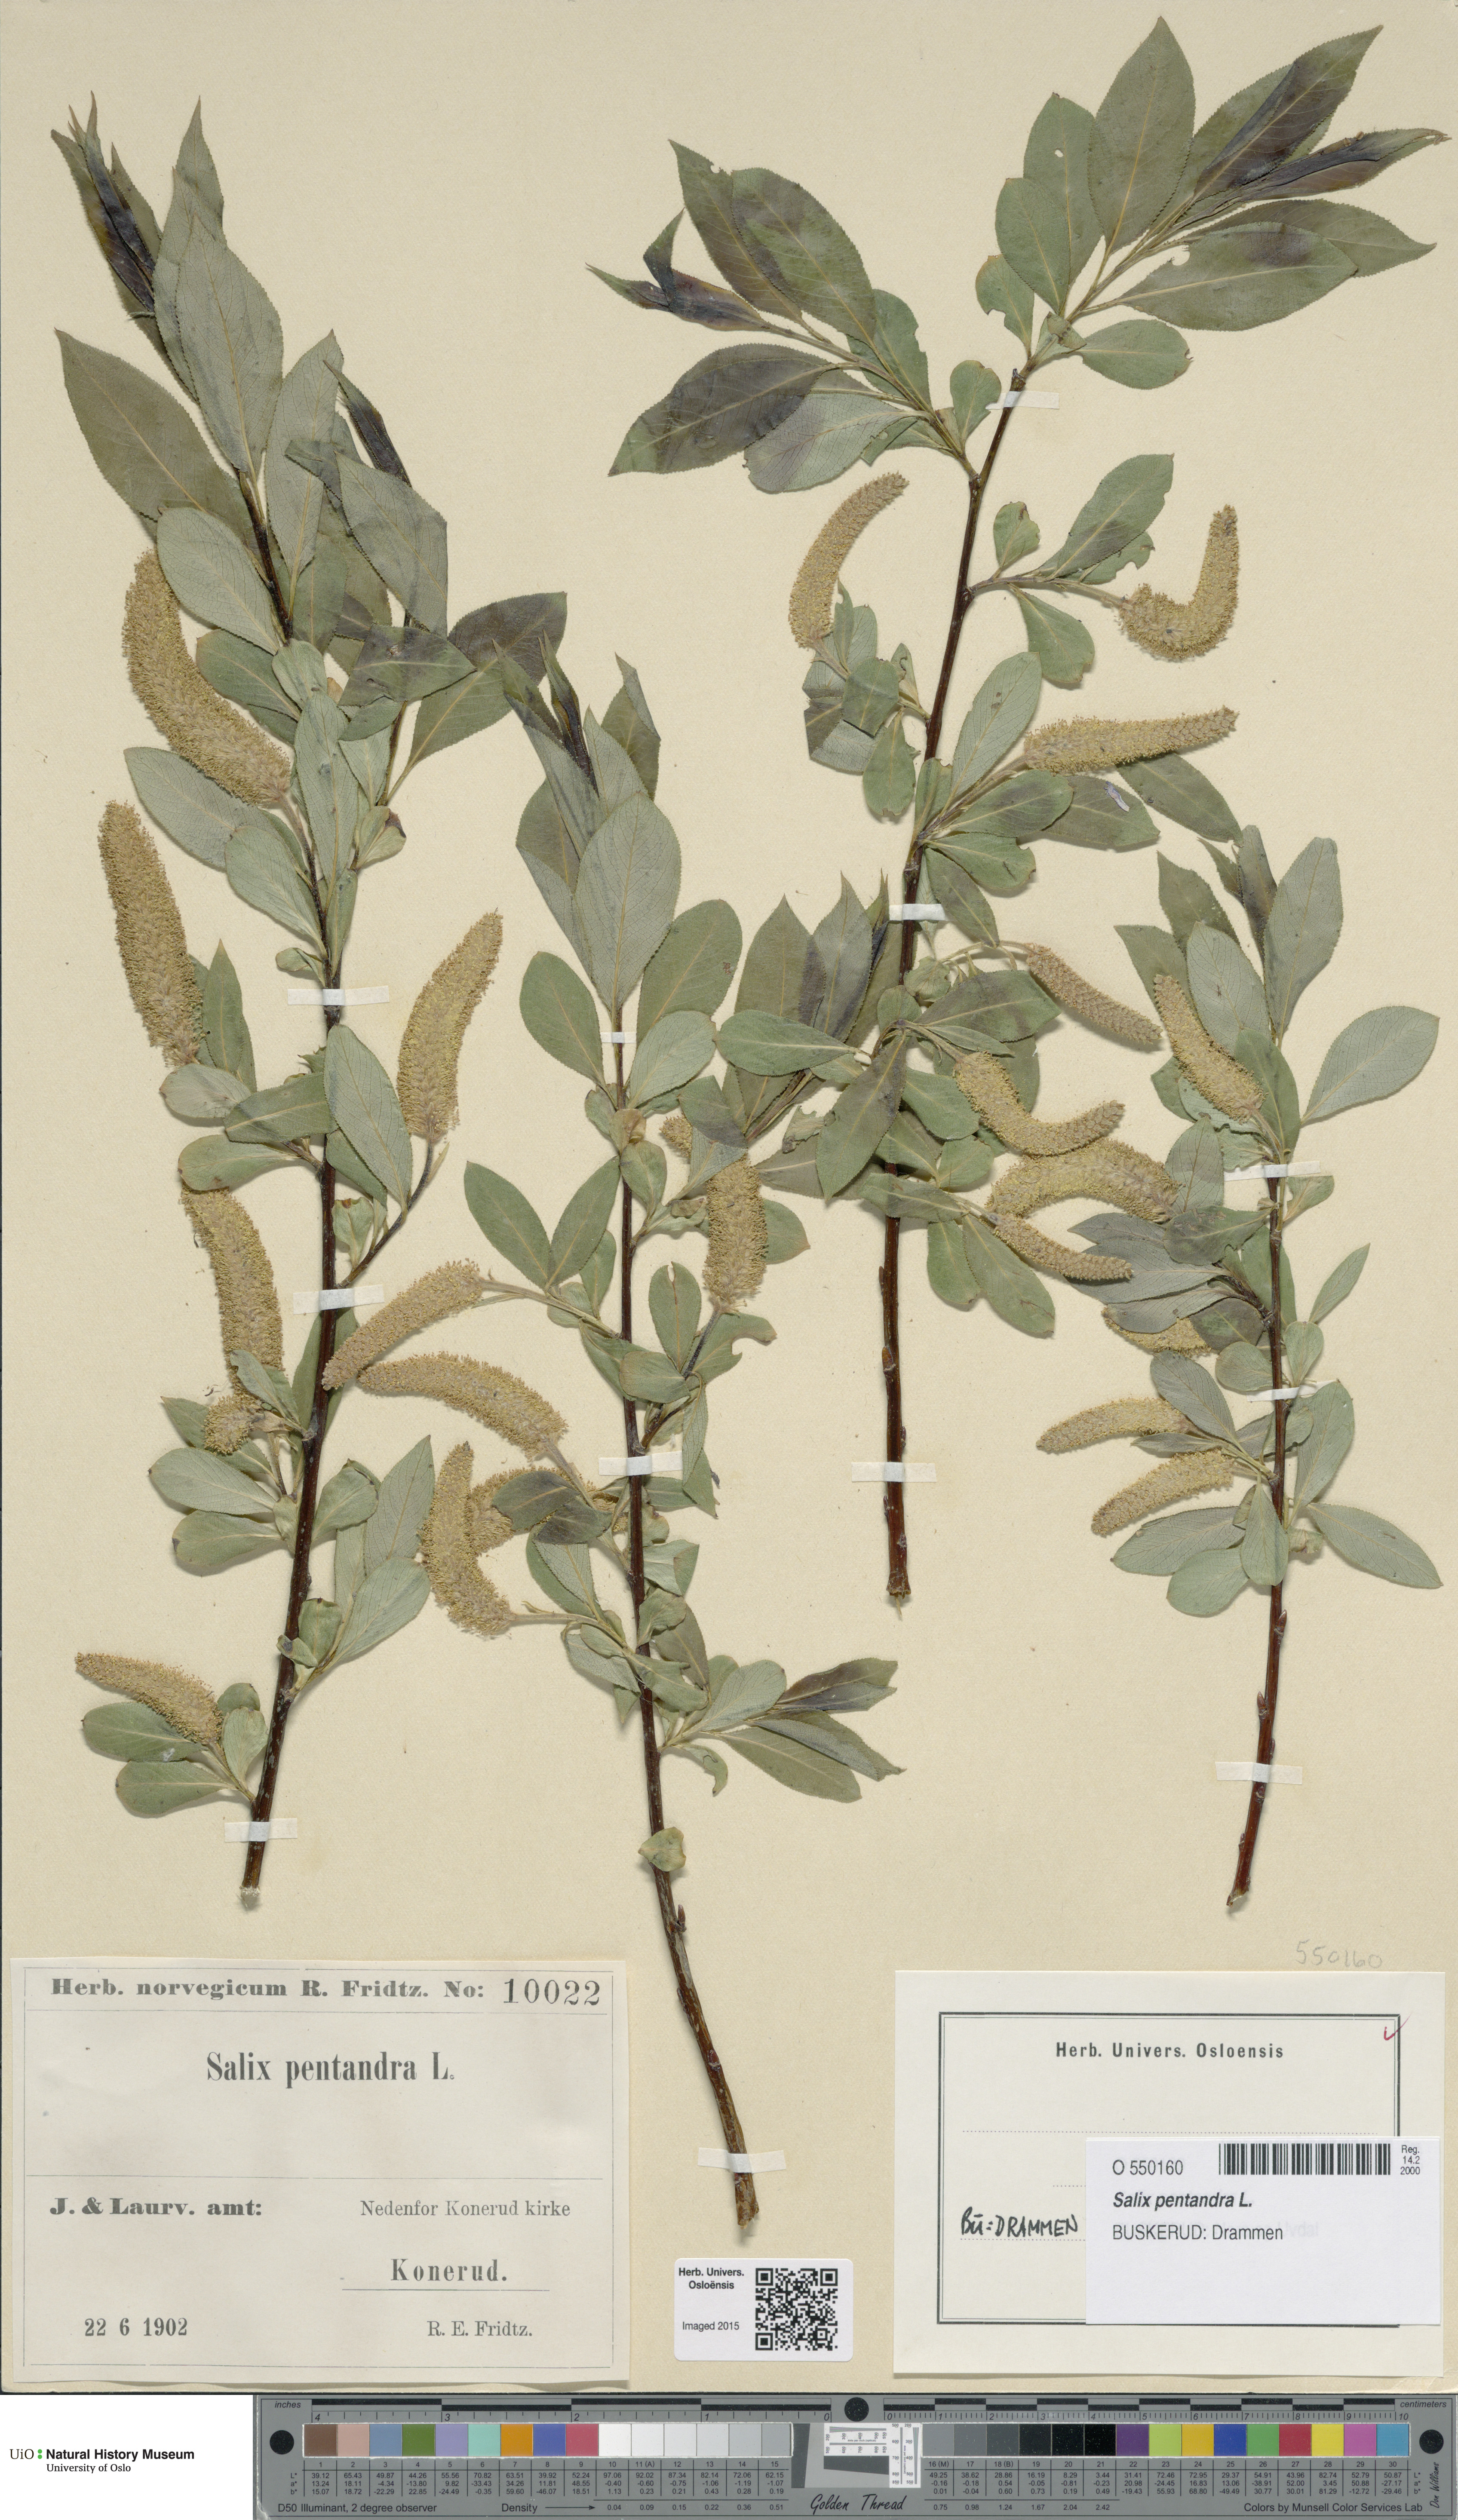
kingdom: Plantae
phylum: Tracheophyta
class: Magnoliopsida
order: Malpighiales
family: Salicaceae
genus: Salix
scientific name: Salix pentandra
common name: Bay willow
